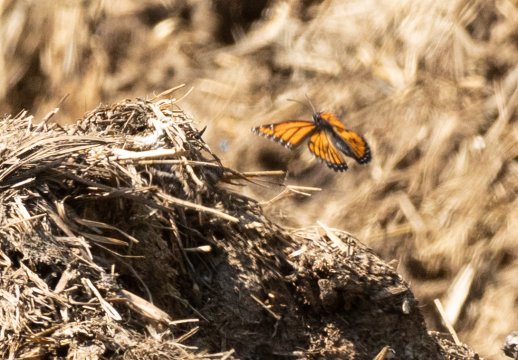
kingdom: Animalia
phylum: Arthropoda
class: Insecta
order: Lepidoptera
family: Nymphalidae
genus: Limenitis
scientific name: Limenitis archippus
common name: Viceroy
